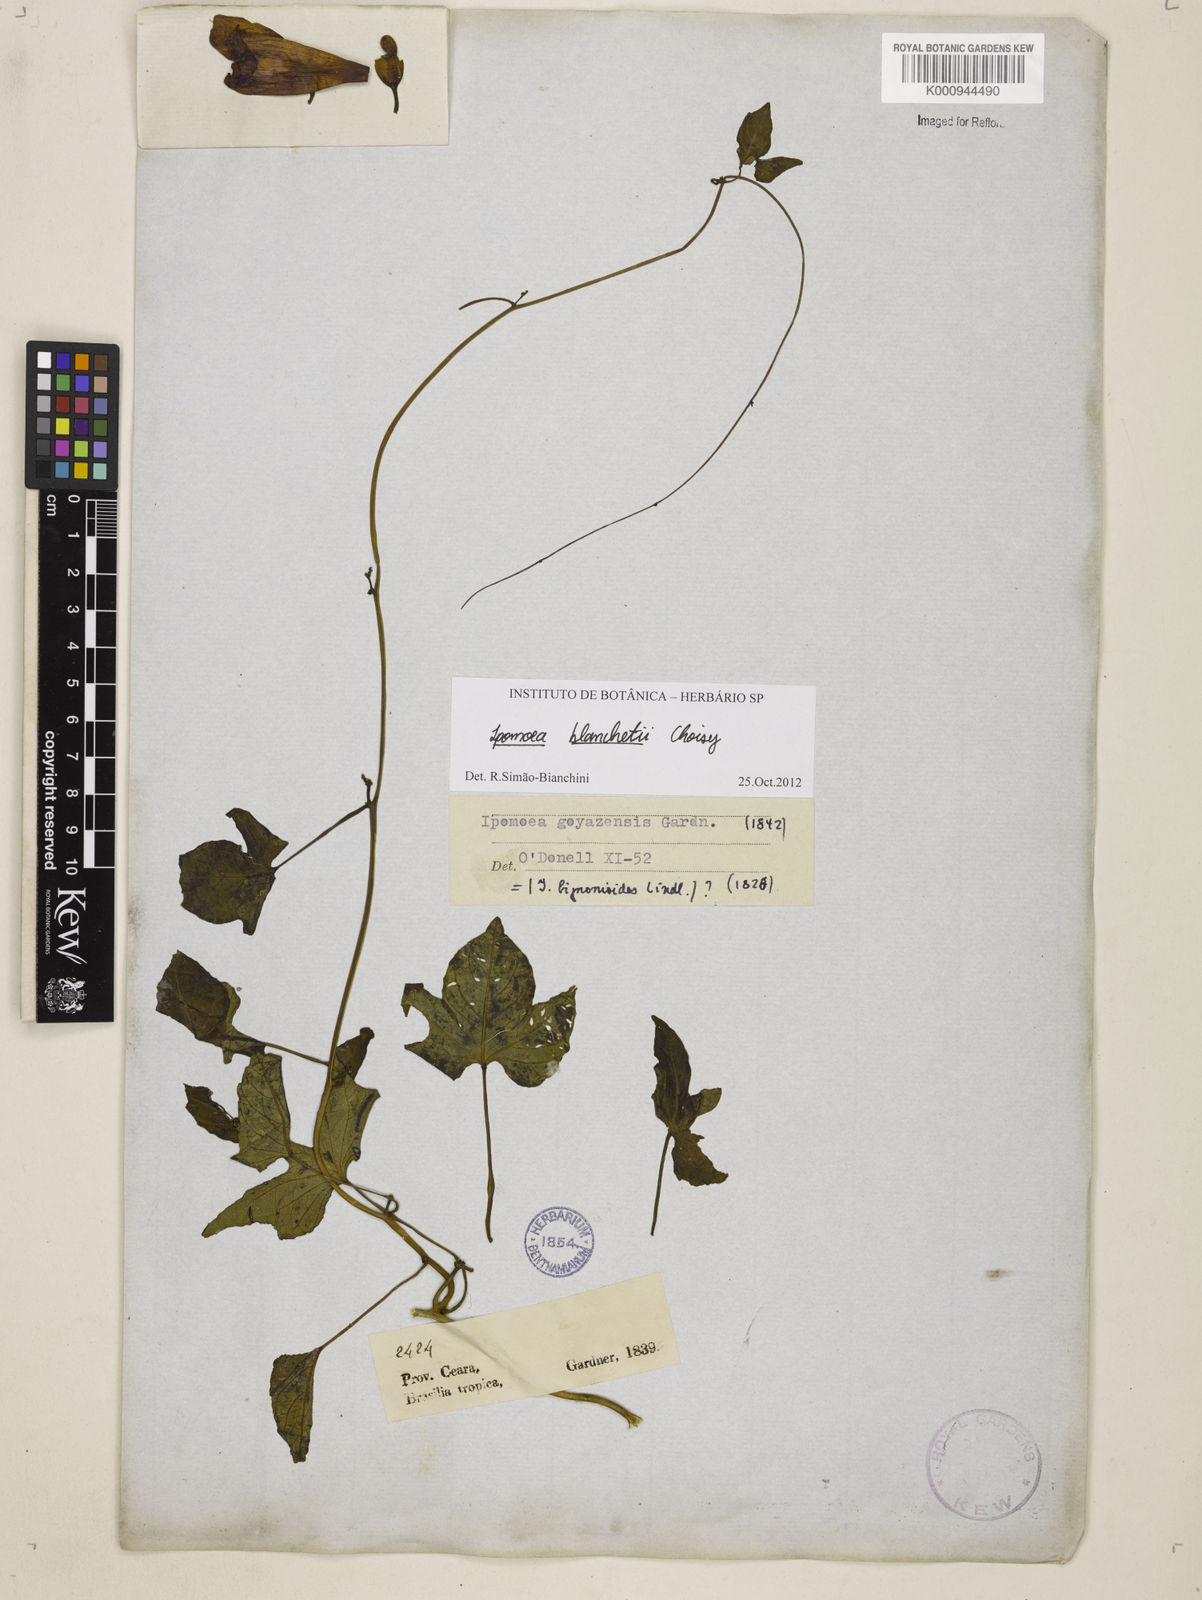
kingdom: Plantae
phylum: Tracheophyta
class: Magnoliopsida
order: Solanales
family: Convolvulaceae
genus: Ipomoea
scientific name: Ipomoea blanchetii
